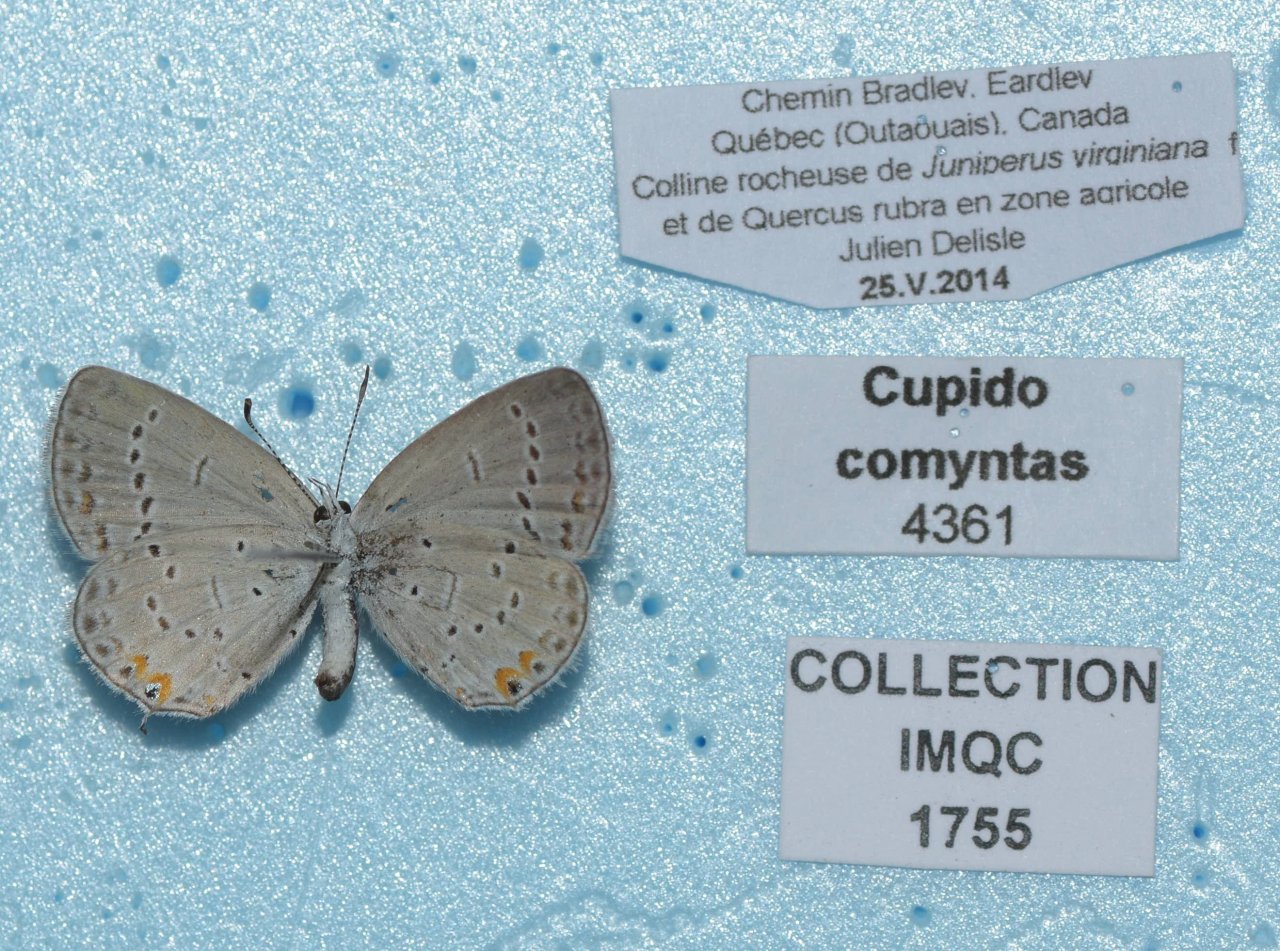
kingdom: Animalia
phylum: Arthropoda
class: Insecta
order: Lepidoptera
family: Lycaenidae
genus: Elkalyce
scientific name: Elkalyce comyntas
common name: Eastern Tailed-Blue
